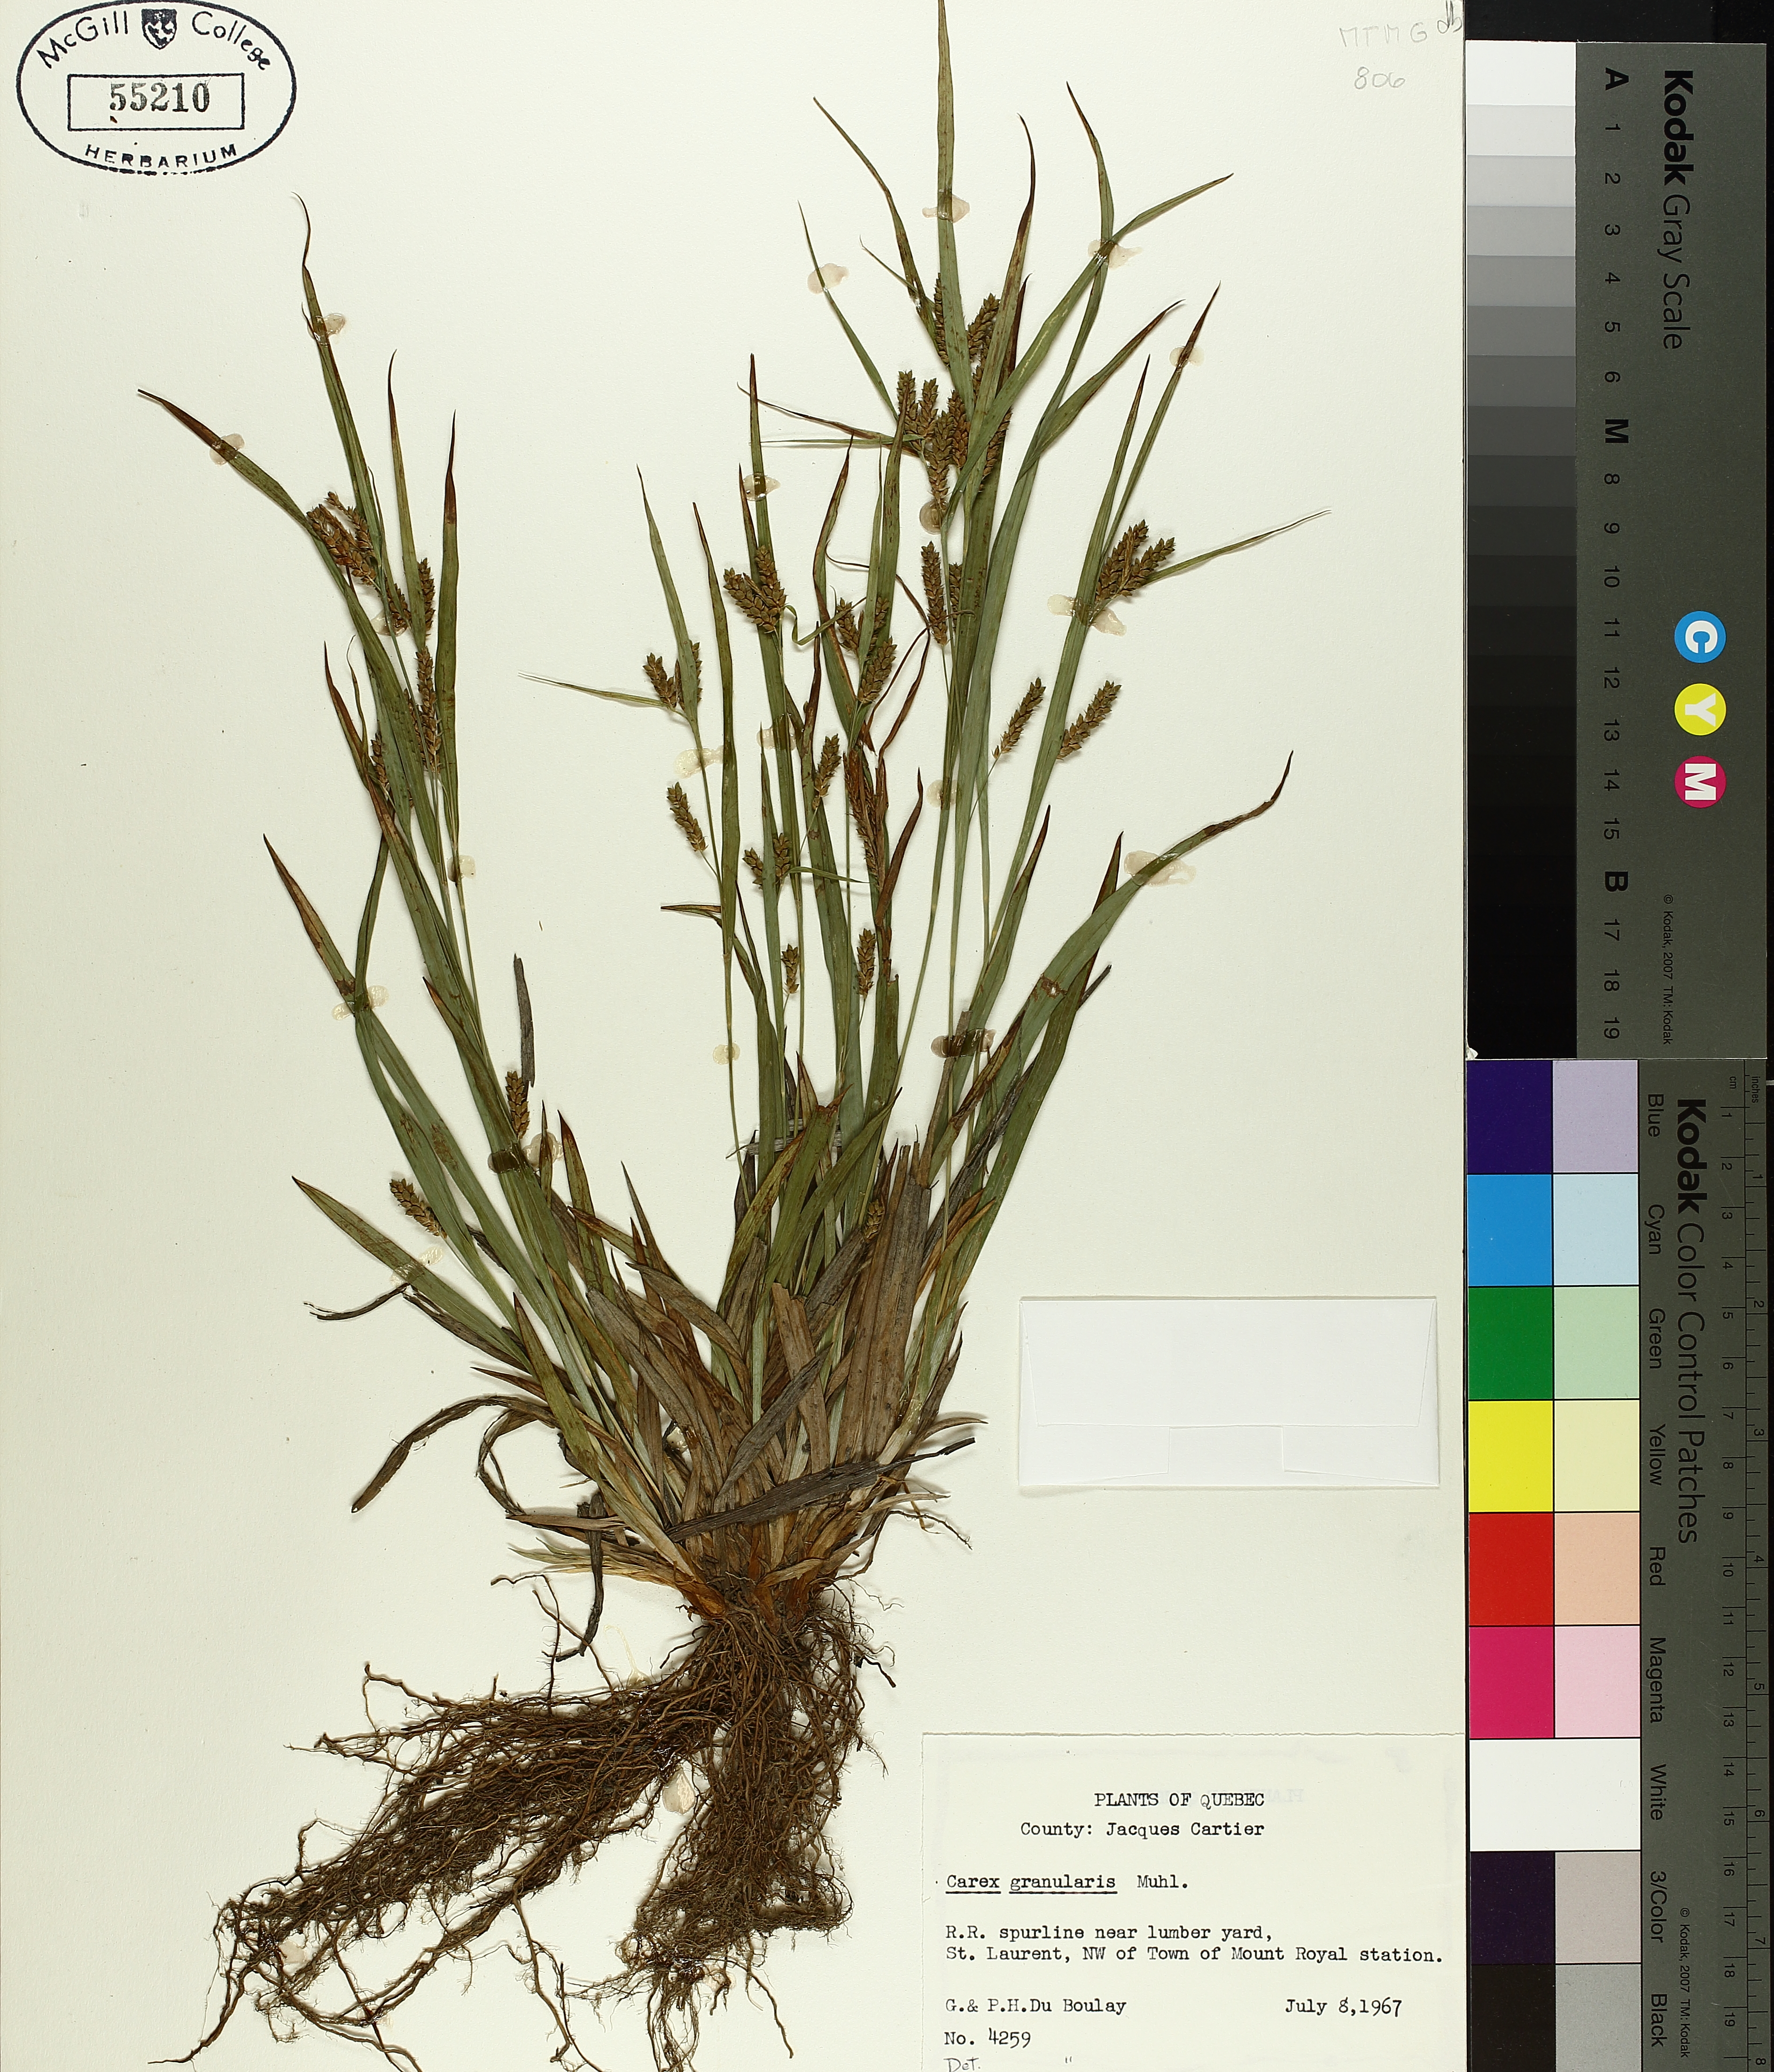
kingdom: Plantae
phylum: Tracheophyta
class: Liliopsida
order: Poales
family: Cyperaceae
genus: Carex
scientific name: Carex granularis
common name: Granular sedge
